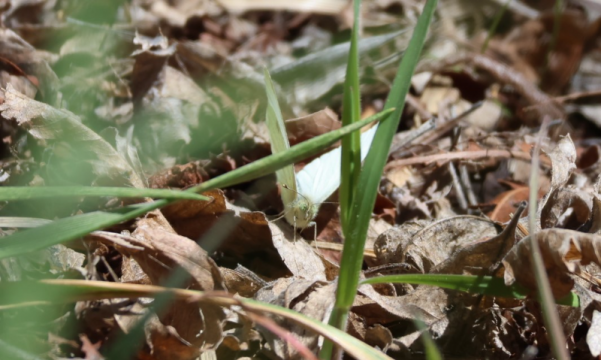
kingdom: Animalia
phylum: Arthropoda
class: Insecta
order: Lepidoptera
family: Pieridae
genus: Pieris
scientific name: Pieris rapae
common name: Cabbage White
